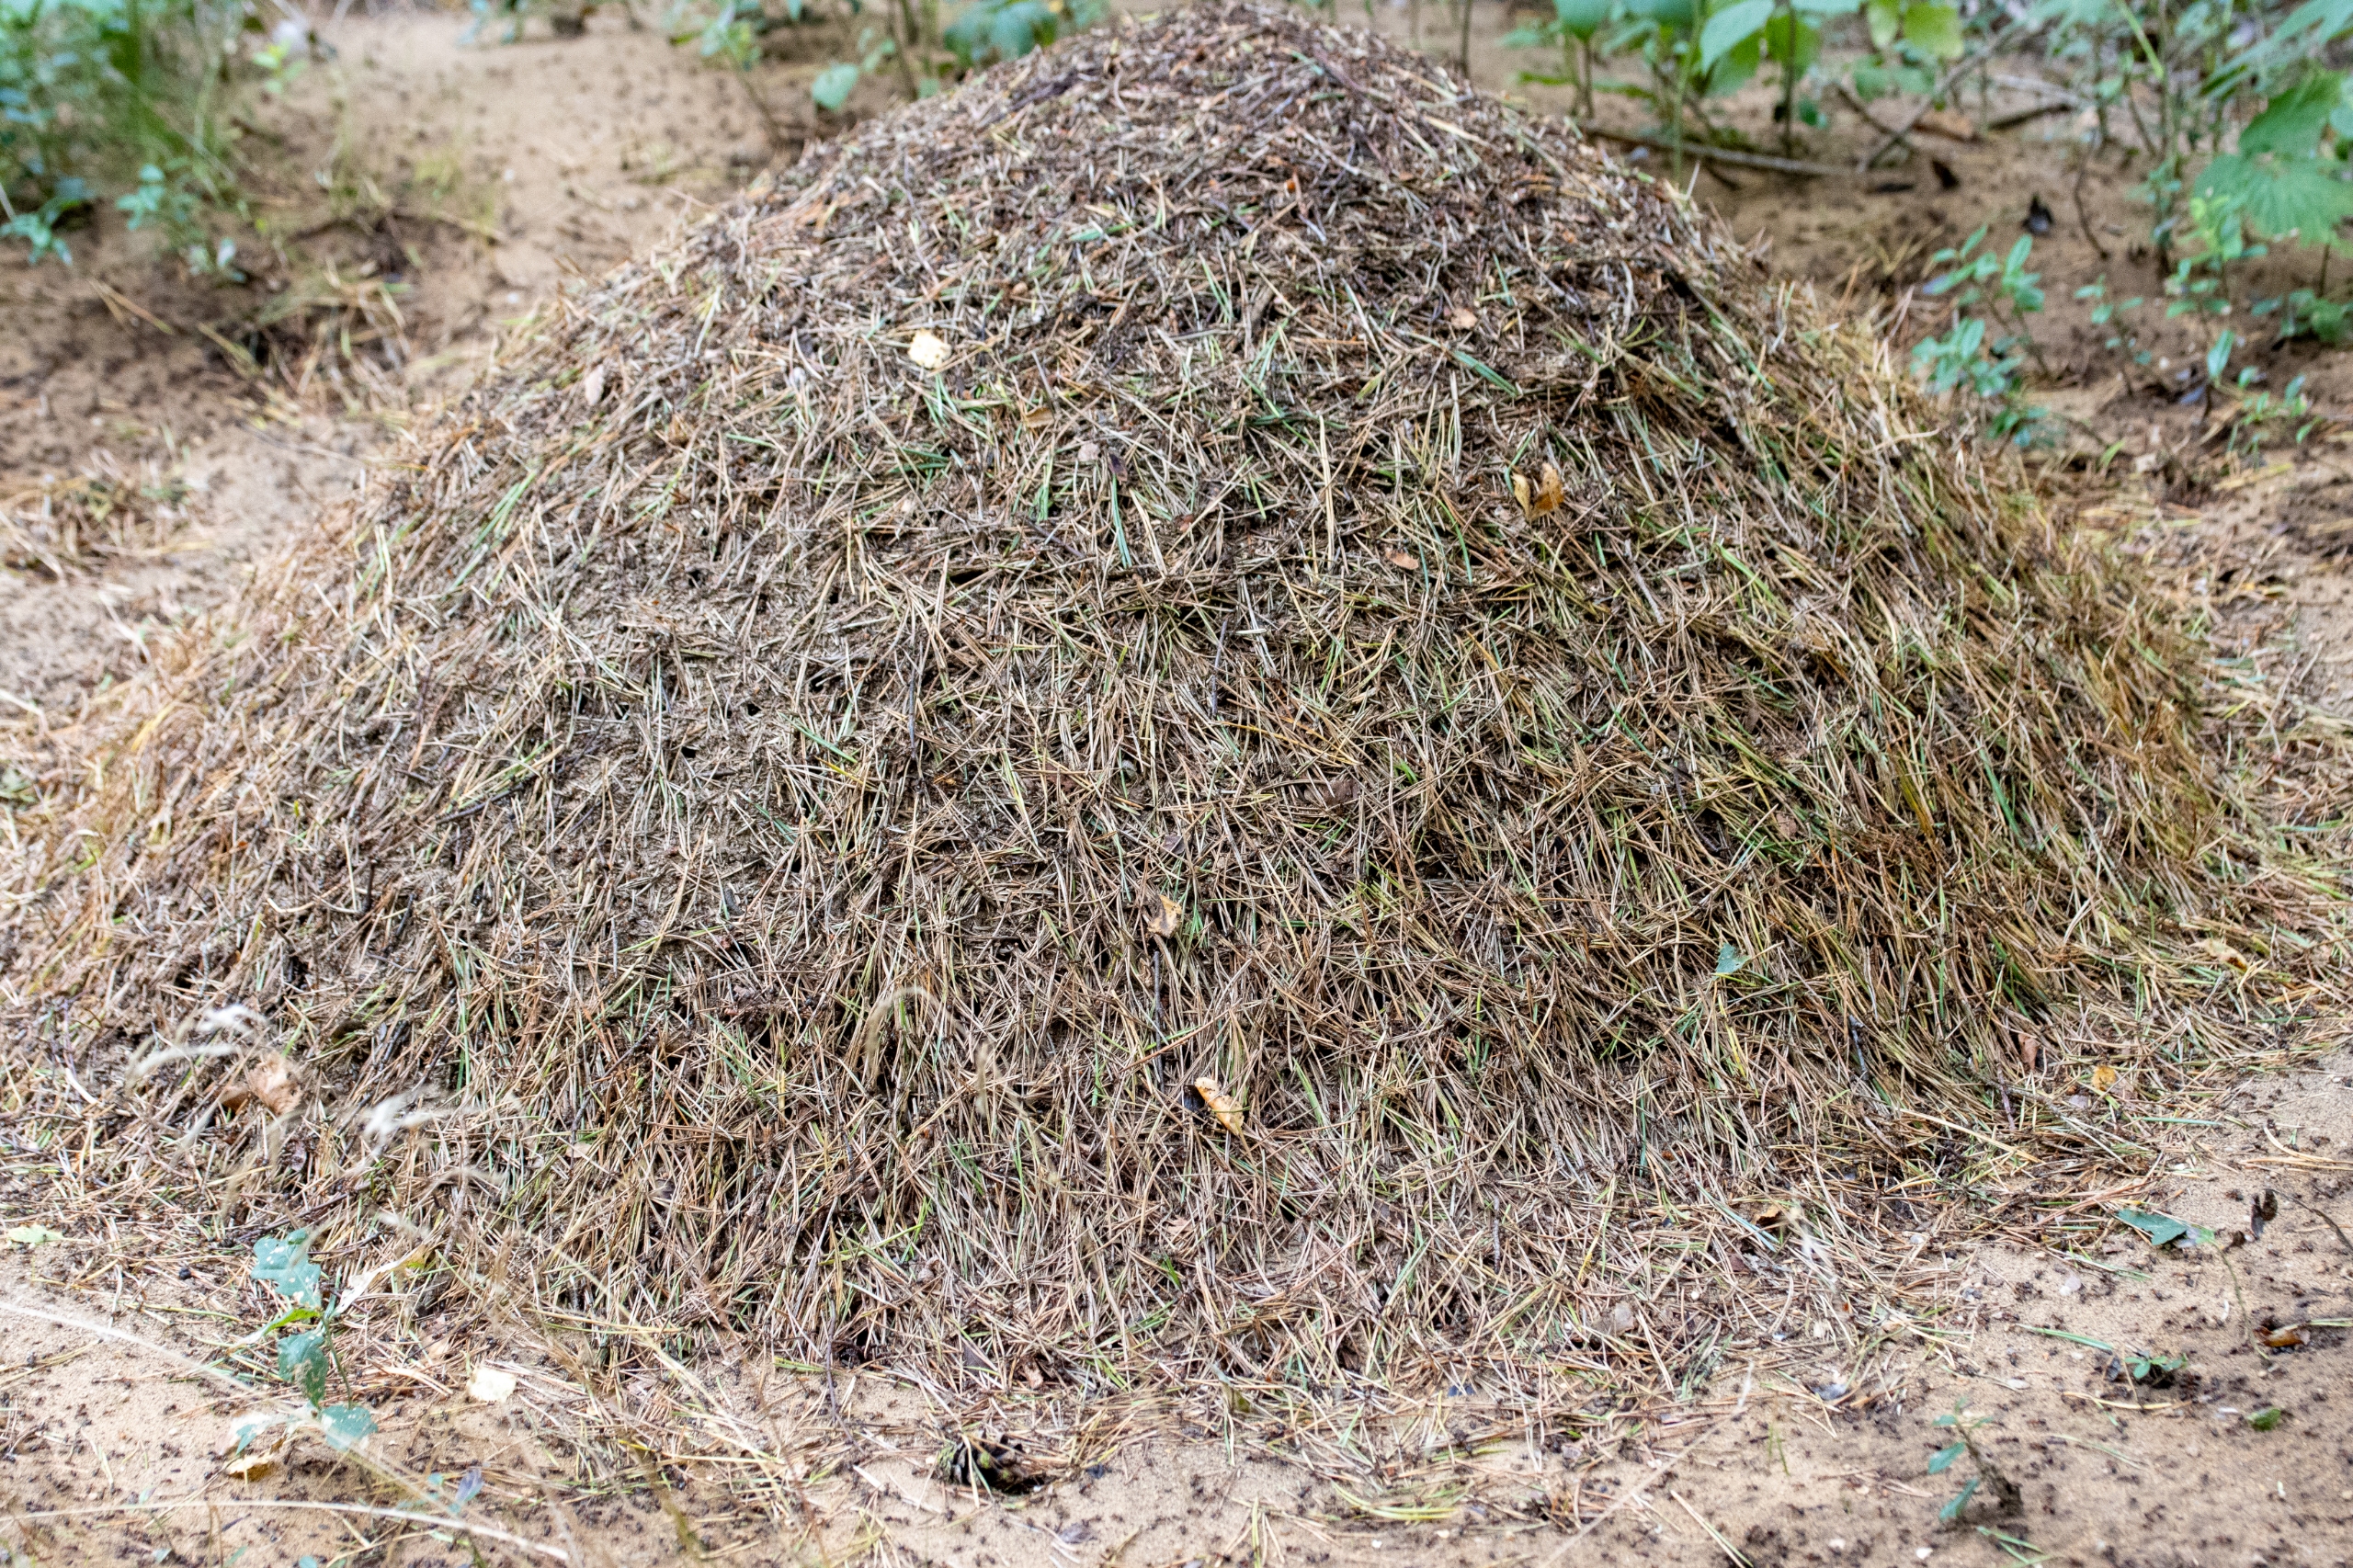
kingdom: Animalia
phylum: Arthropoda
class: Insecta
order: Hymenoptera
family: Formicidae
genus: Formica
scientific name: Formica
